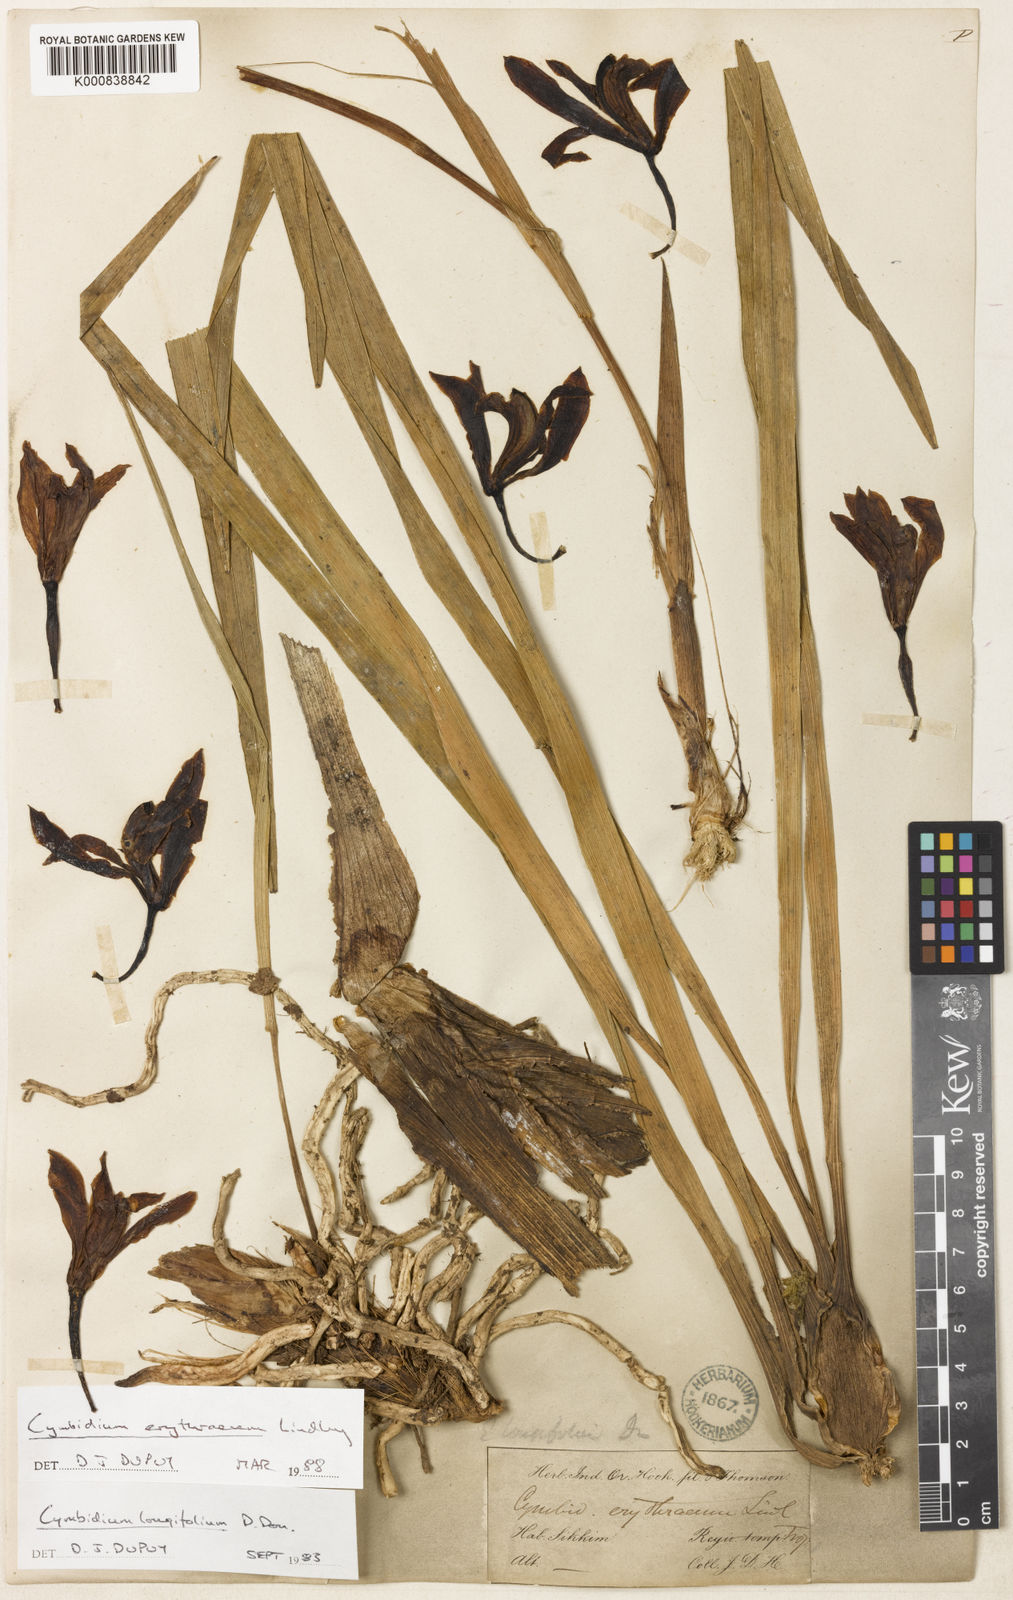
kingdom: Plantae
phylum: Tracheophyta
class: Liliopsida
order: Asparagales
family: Orchidaceae
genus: Cymbidium
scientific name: Cymbidium erythraeum
